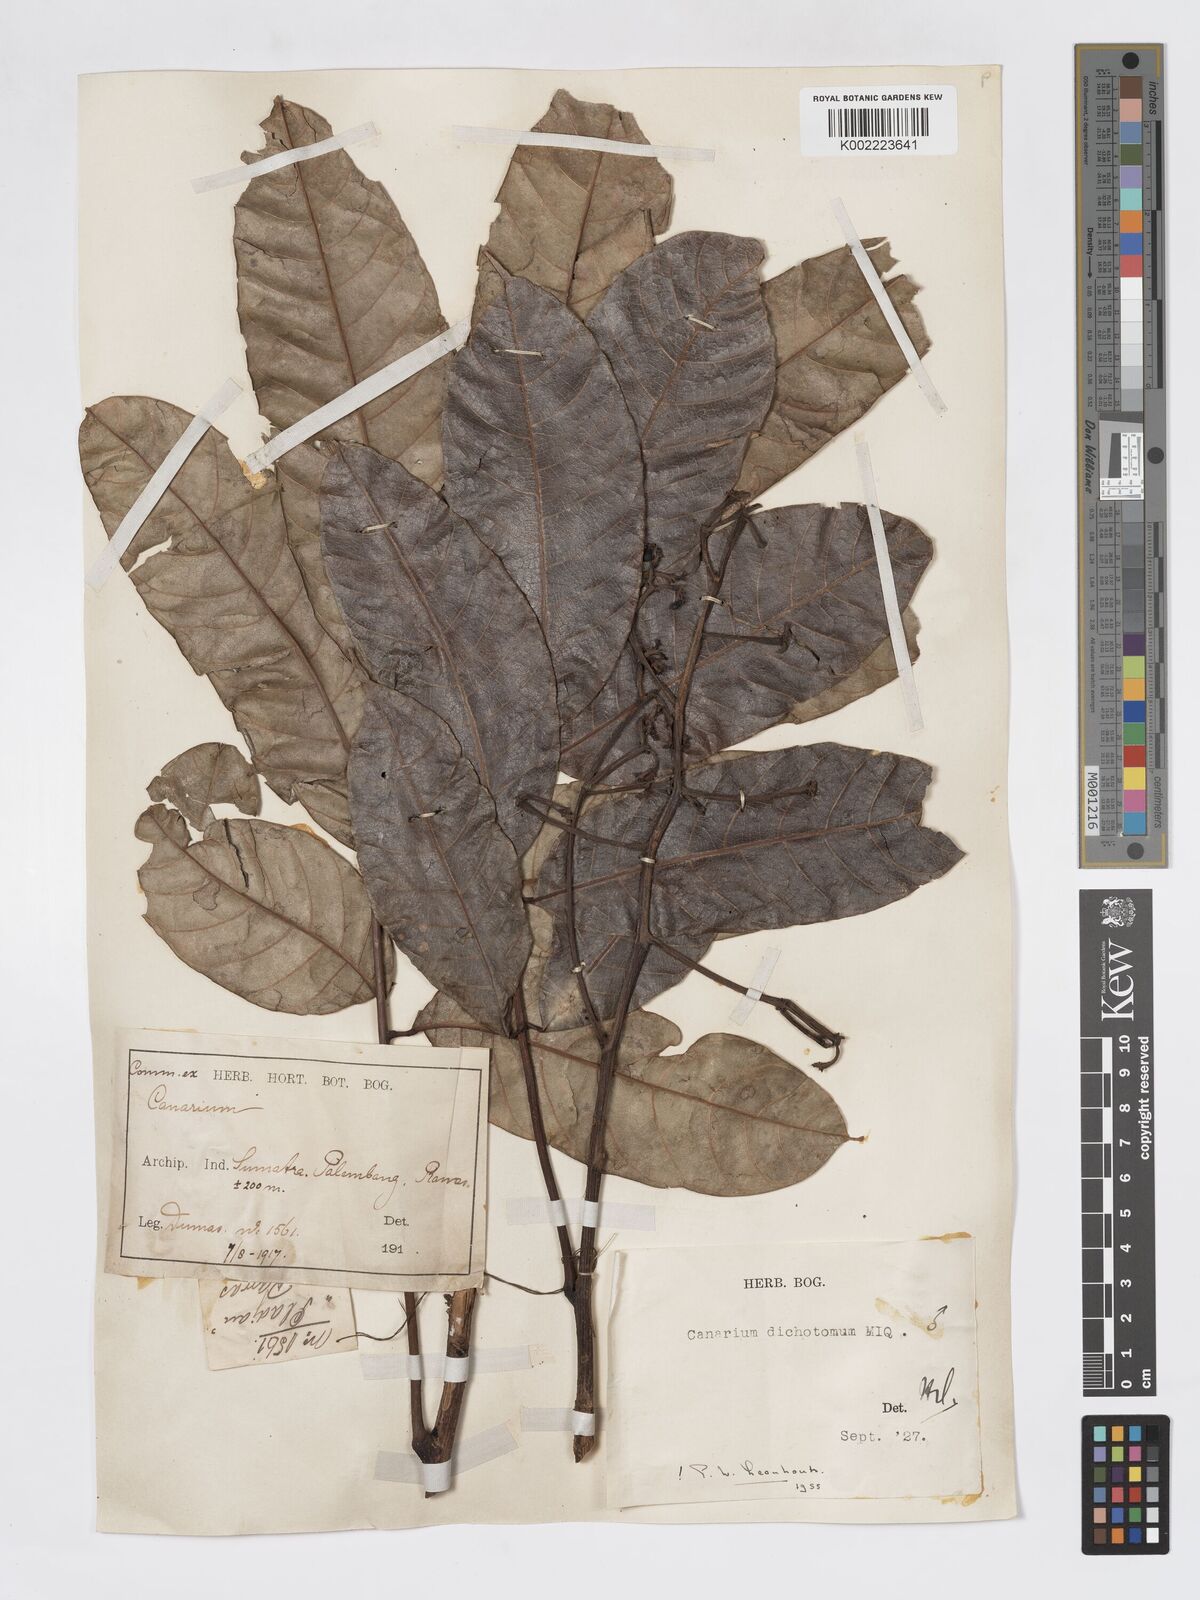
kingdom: Plantae
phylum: Tracheophyta
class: Magnoliopsida
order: Sapindales
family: Burseraceae
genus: Canarium
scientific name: Canarium dichotomum
